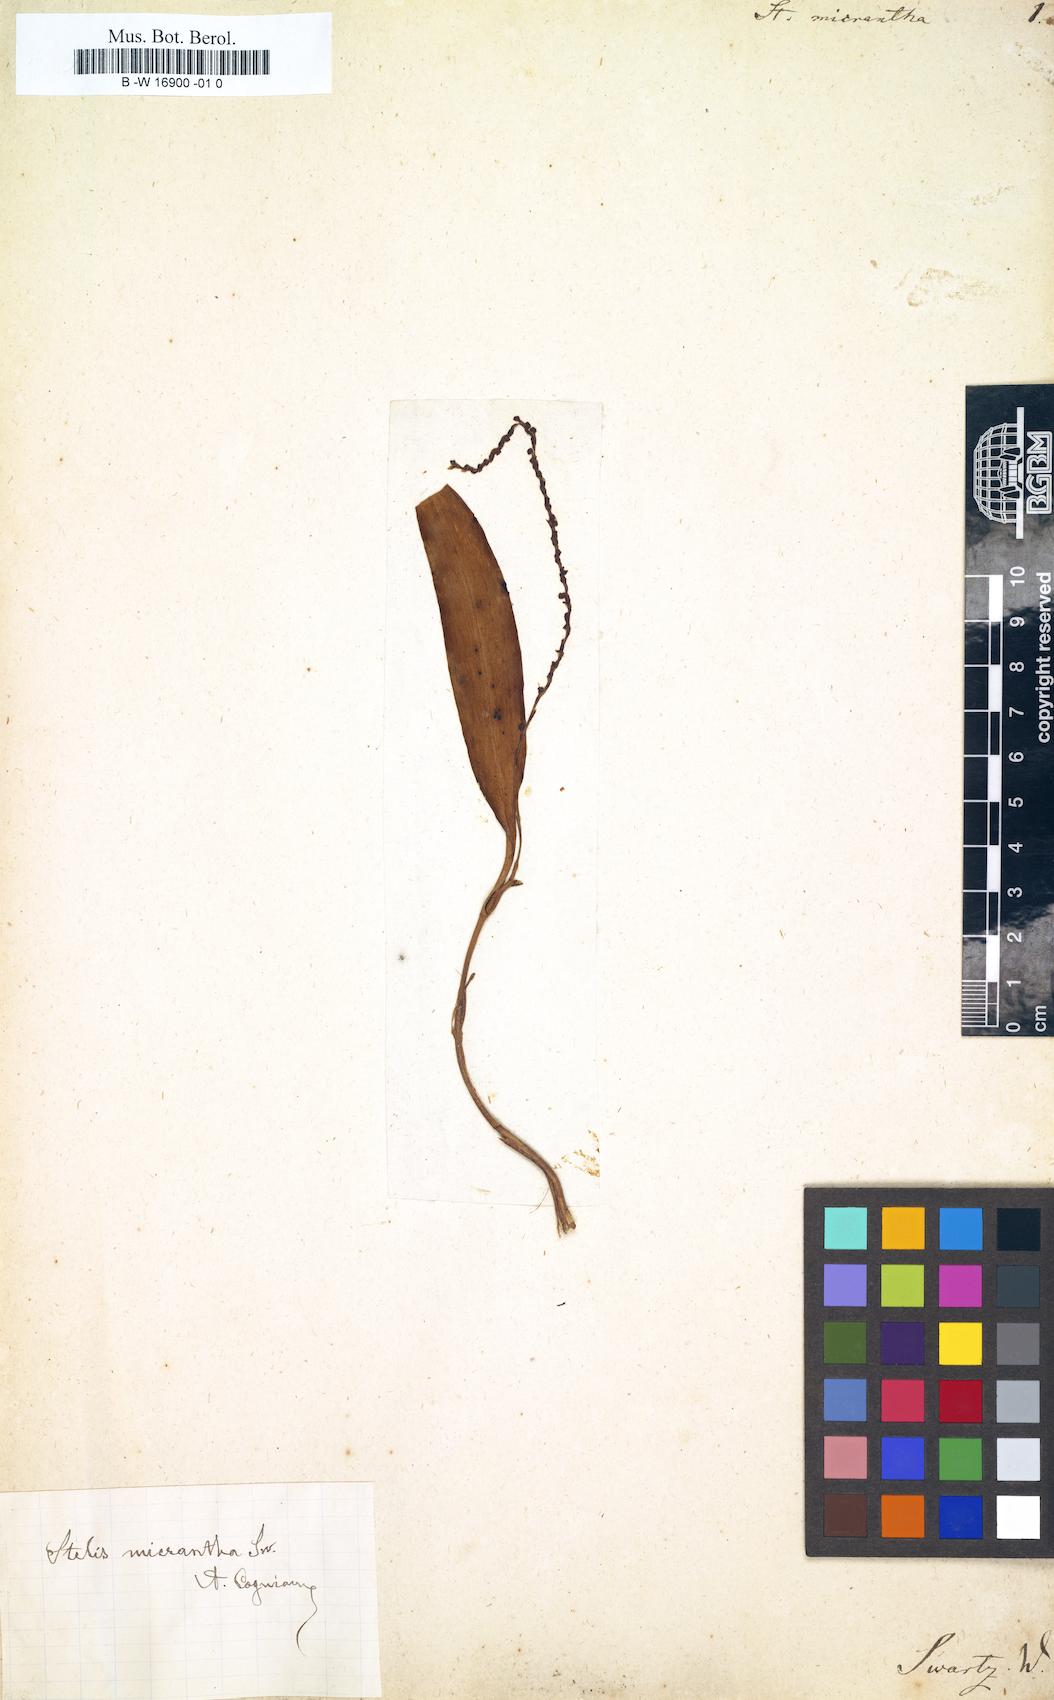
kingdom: Plantae
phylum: Tracheophyta
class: Liliopsida
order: Asparagales
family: Orchidaceae
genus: Stelis
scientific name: Stelis micrantha
